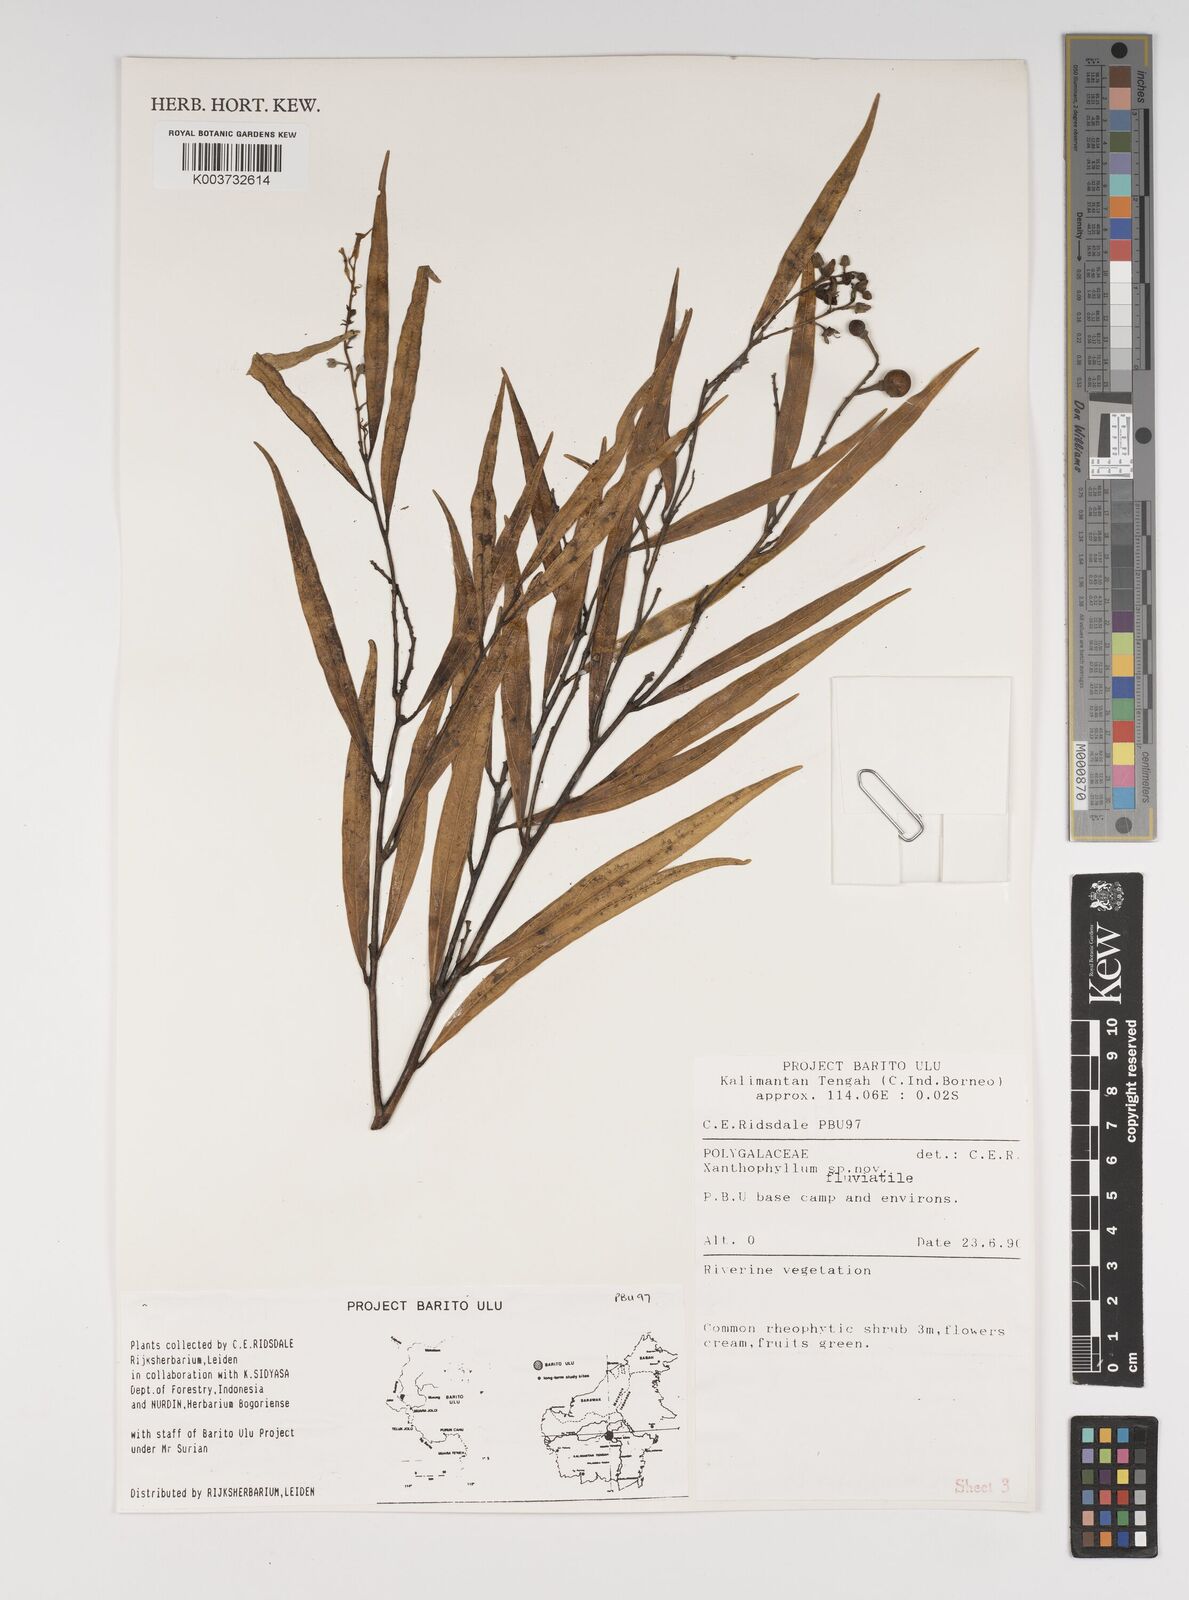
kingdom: Plantae
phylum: Tracheophyta
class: Magnoliopsida
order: Fabales
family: Polygalaceae
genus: Xanthophyllum
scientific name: Xanthophyllum
